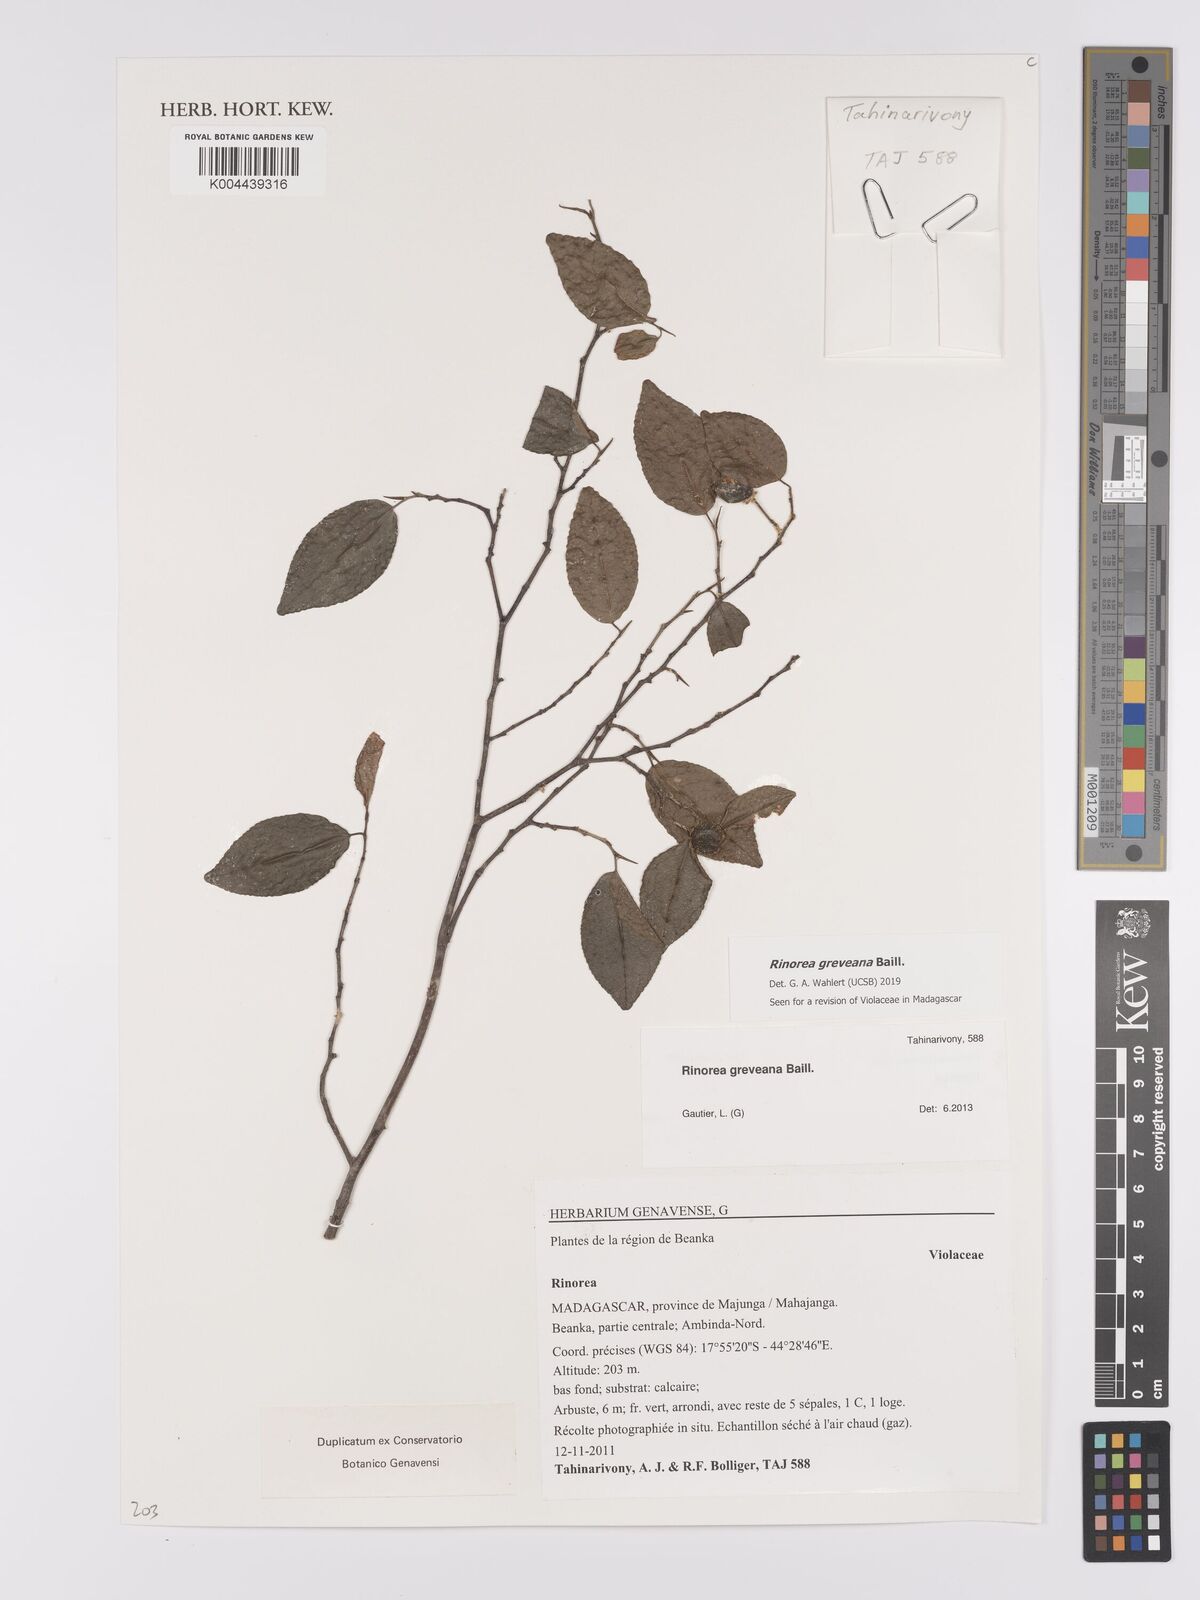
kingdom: Plantae
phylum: Tracheophyta
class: Magnoliopsida
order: Malpighiales
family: Violaceae
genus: Rinorea
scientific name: Rinorea greveana
